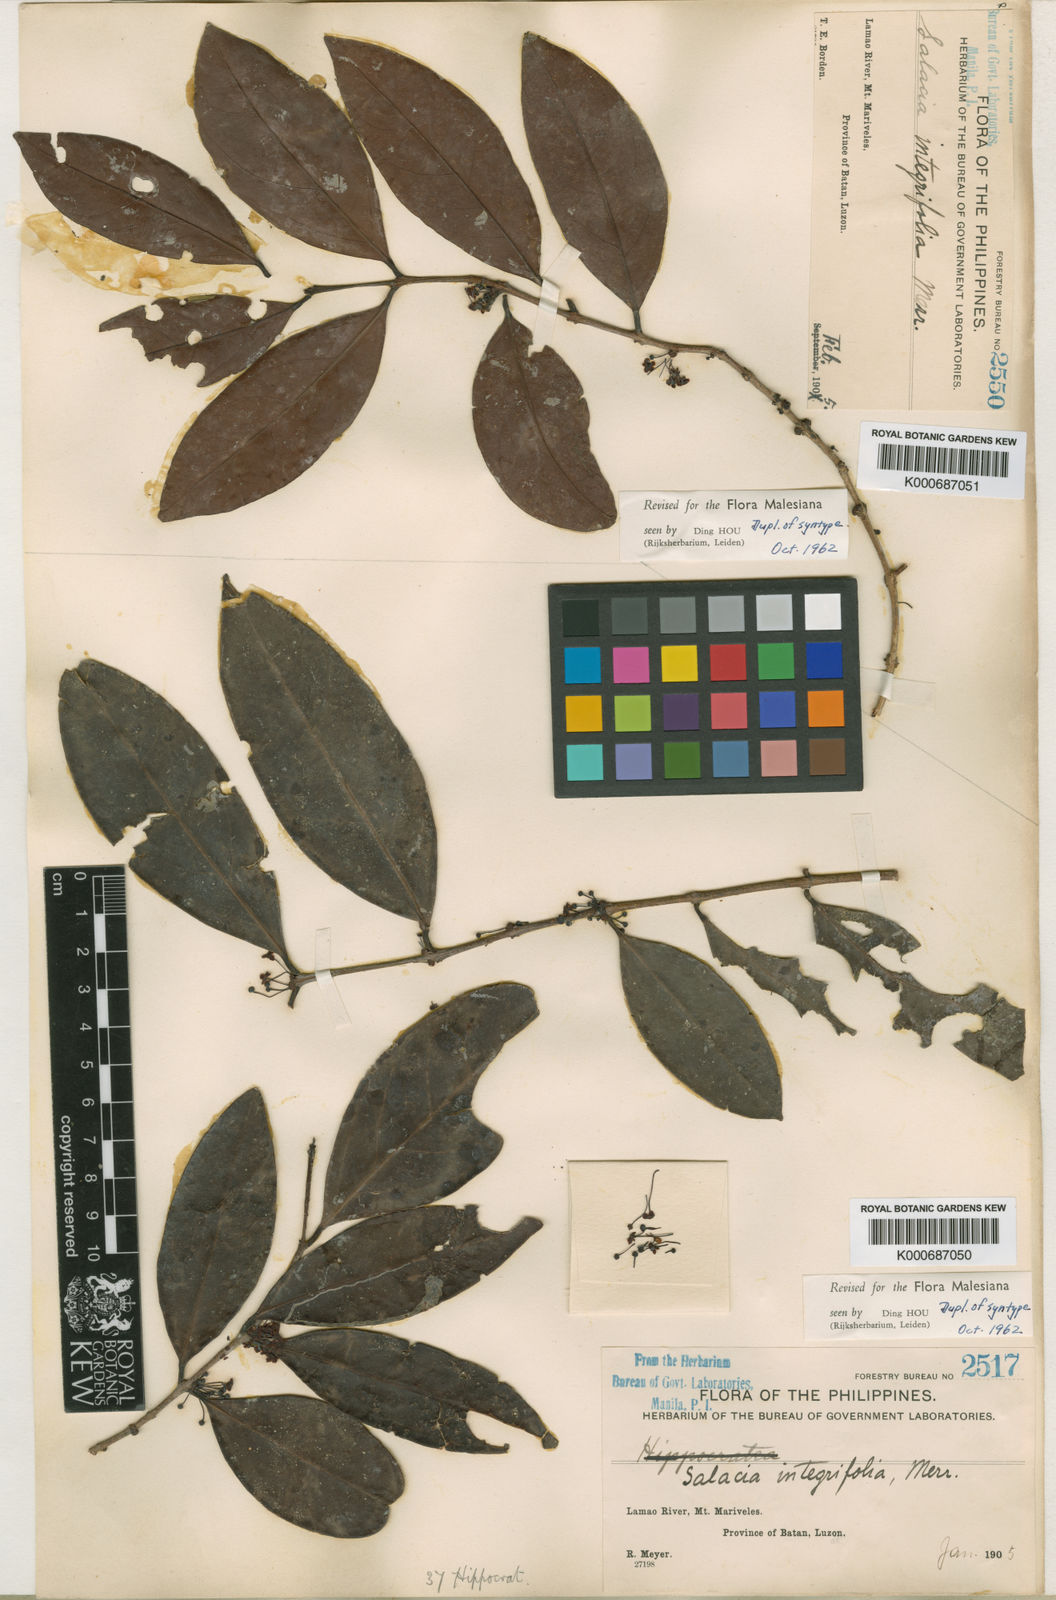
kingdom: Plantae
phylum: Tracheophyta
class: Magnoliopsida
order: Celastrales
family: Celastraceae
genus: Salacia
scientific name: Salacia macrophylla
